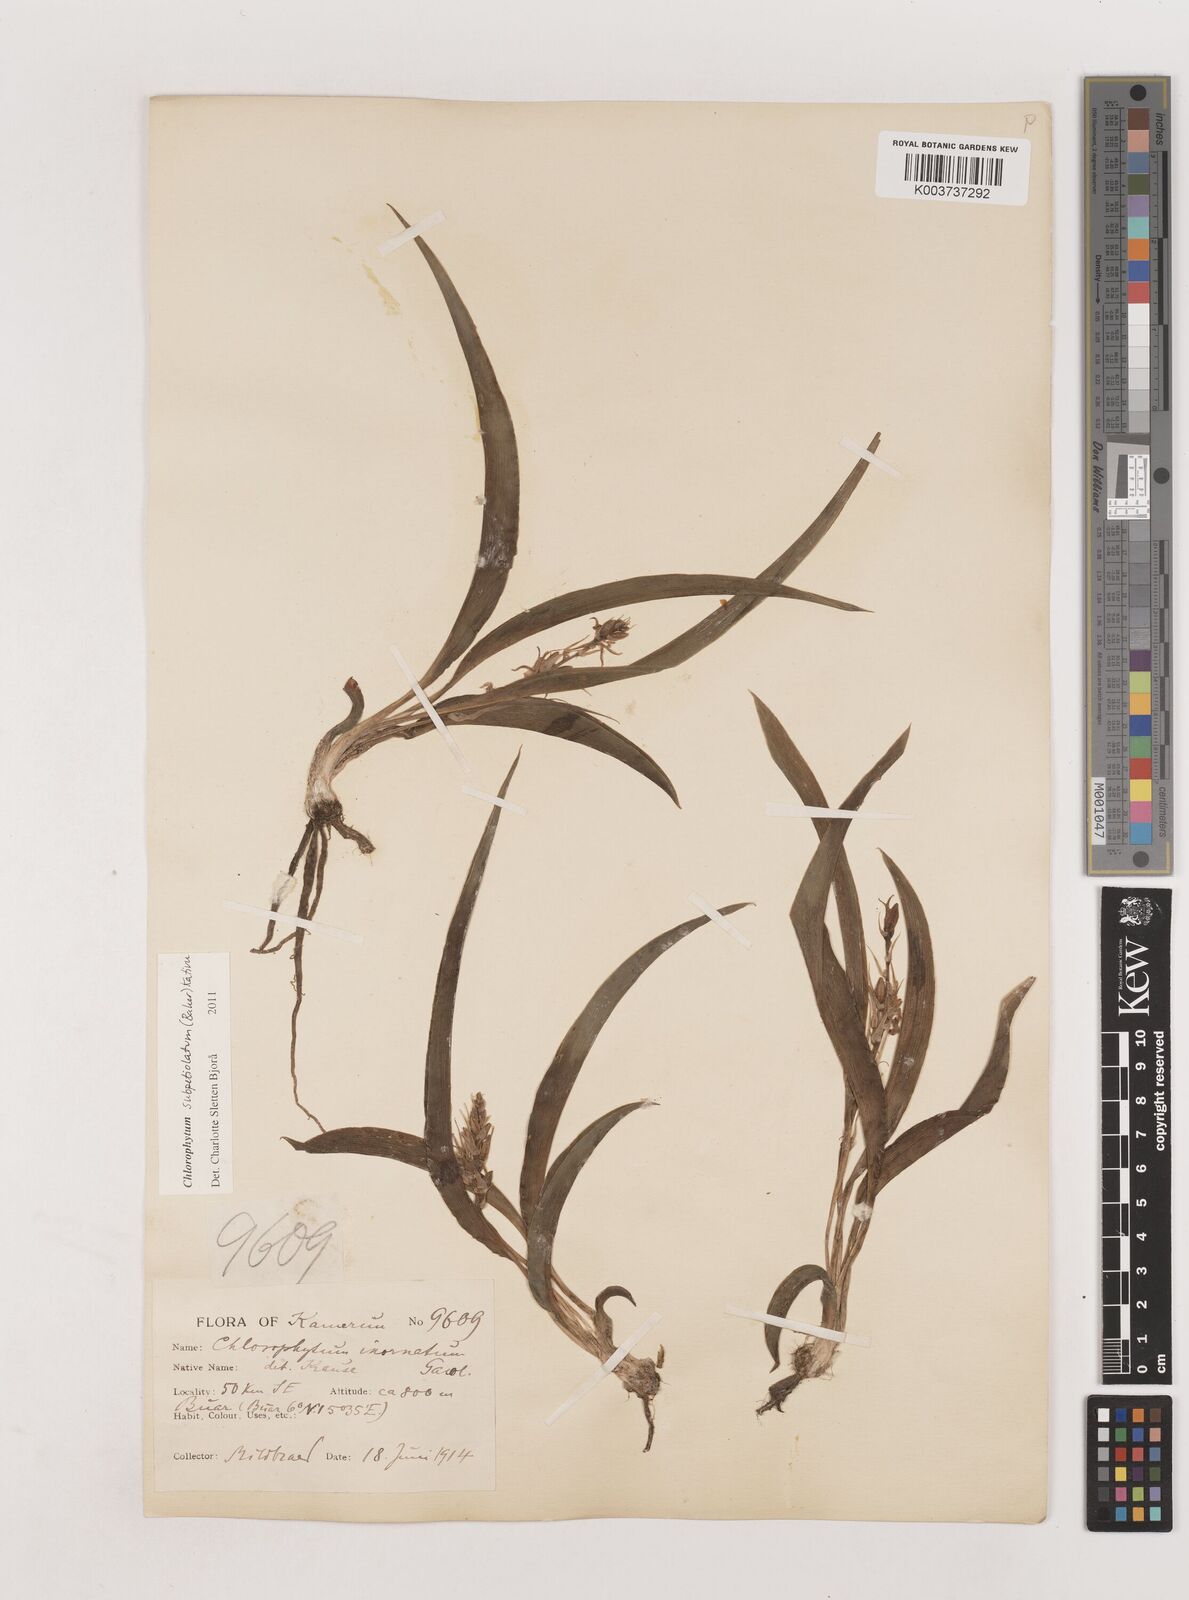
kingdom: Plantae
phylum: Tracheophyta
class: Liliopsida
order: Asparagales
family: Asparagaceae
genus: Chlorophytum
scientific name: Chlorophytum subpetiolatum
